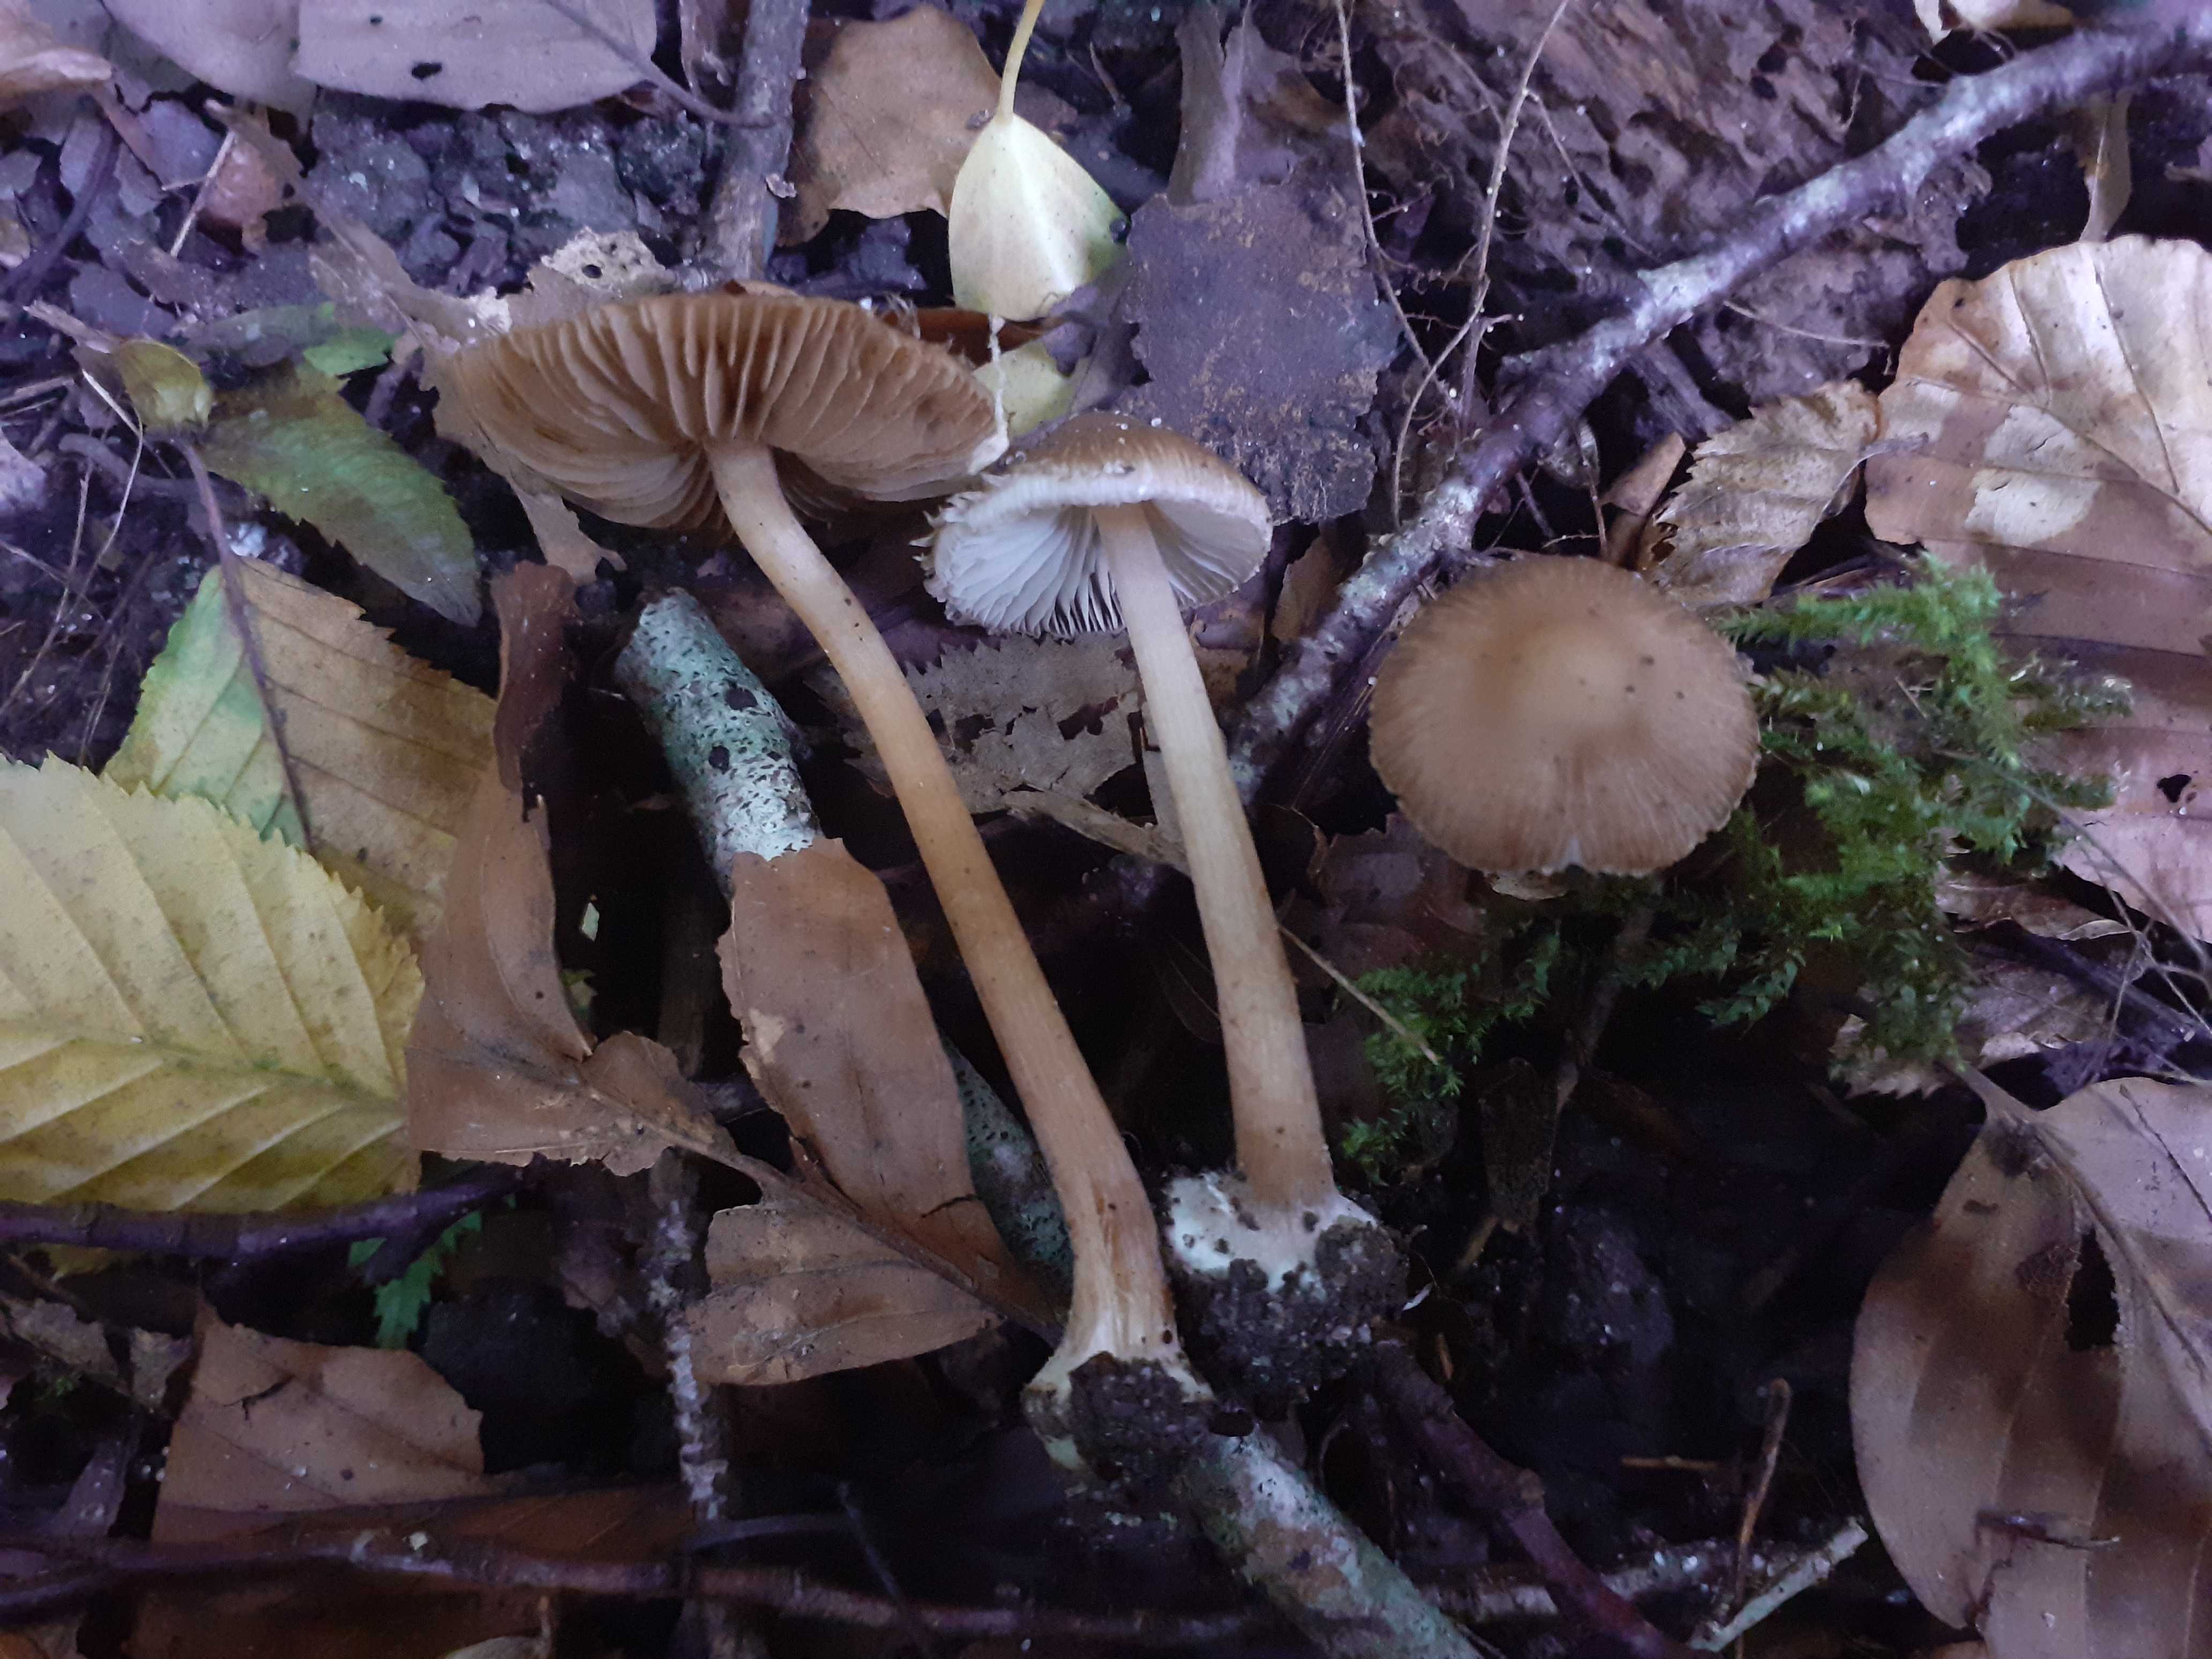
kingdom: Fungi
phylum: Basidiomycota
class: Agaricomycetes
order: Agaricales
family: Inocybaceae
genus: Inocybe
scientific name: Inocybe asterospora
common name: stjernesporet trævlhat
